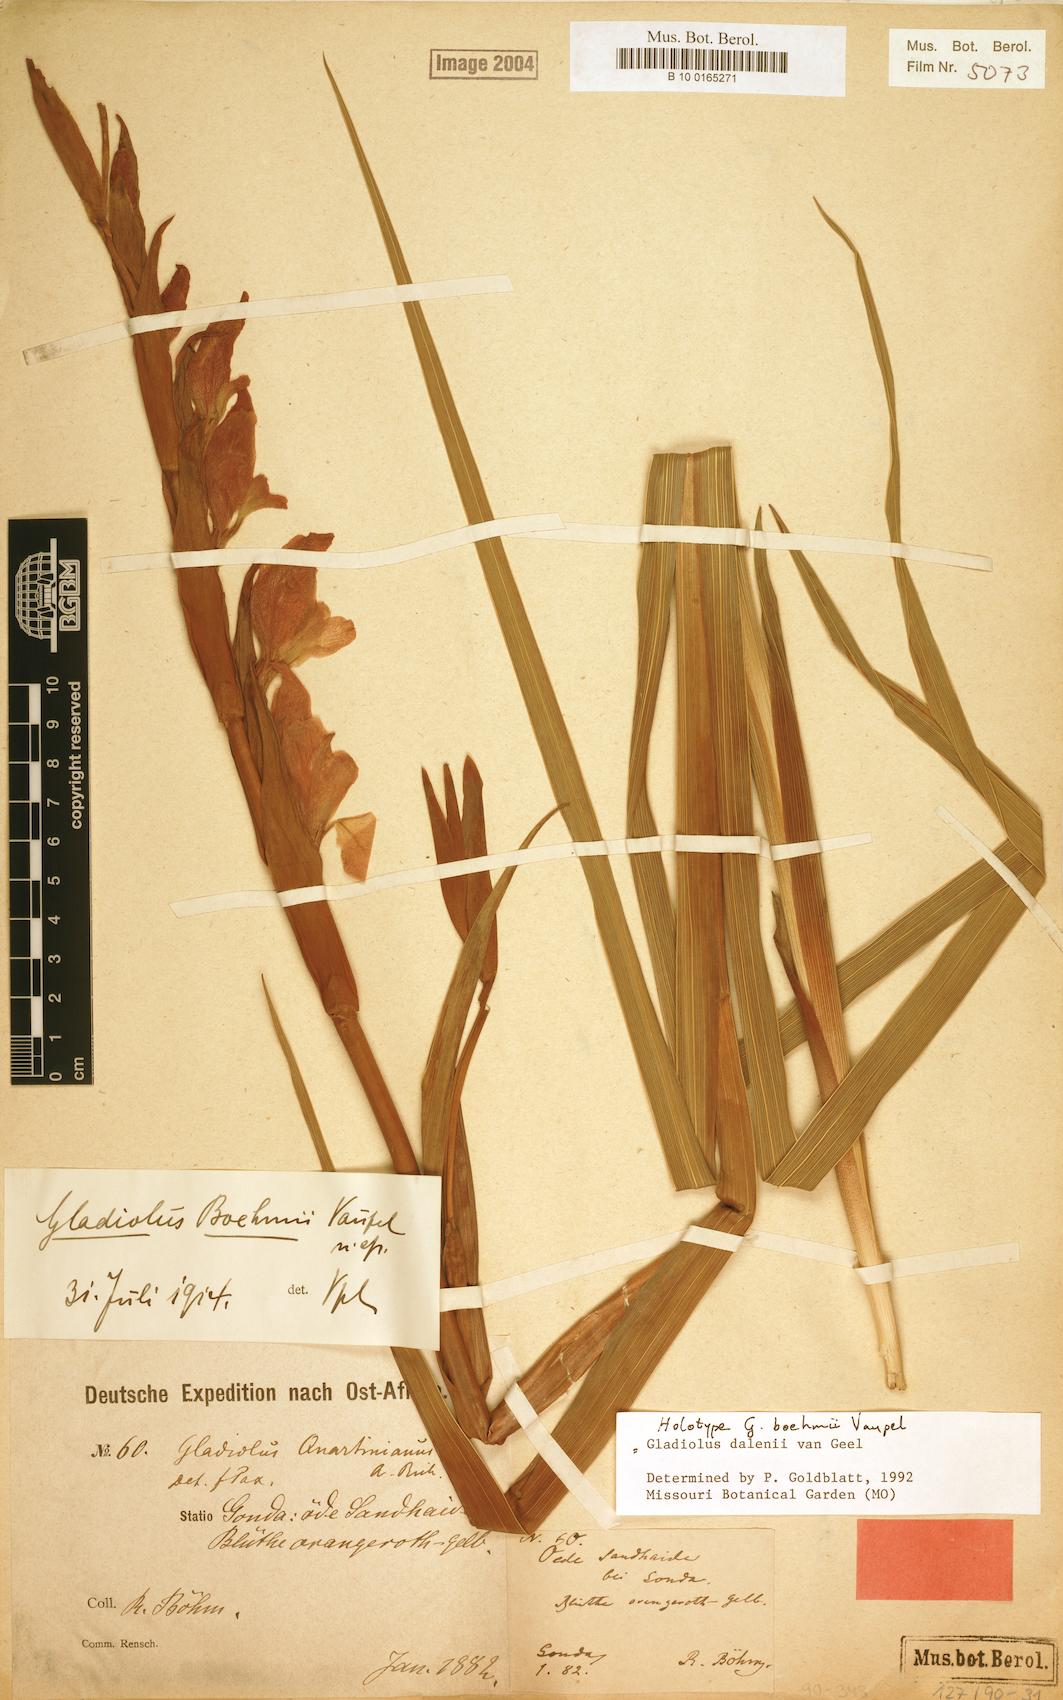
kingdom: Plantae
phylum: Tracheophyta
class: Liliopsida
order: Asparagales
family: Iridaceae
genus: Gladiolus
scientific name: Gladiolus dalenii
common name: Cornflag
